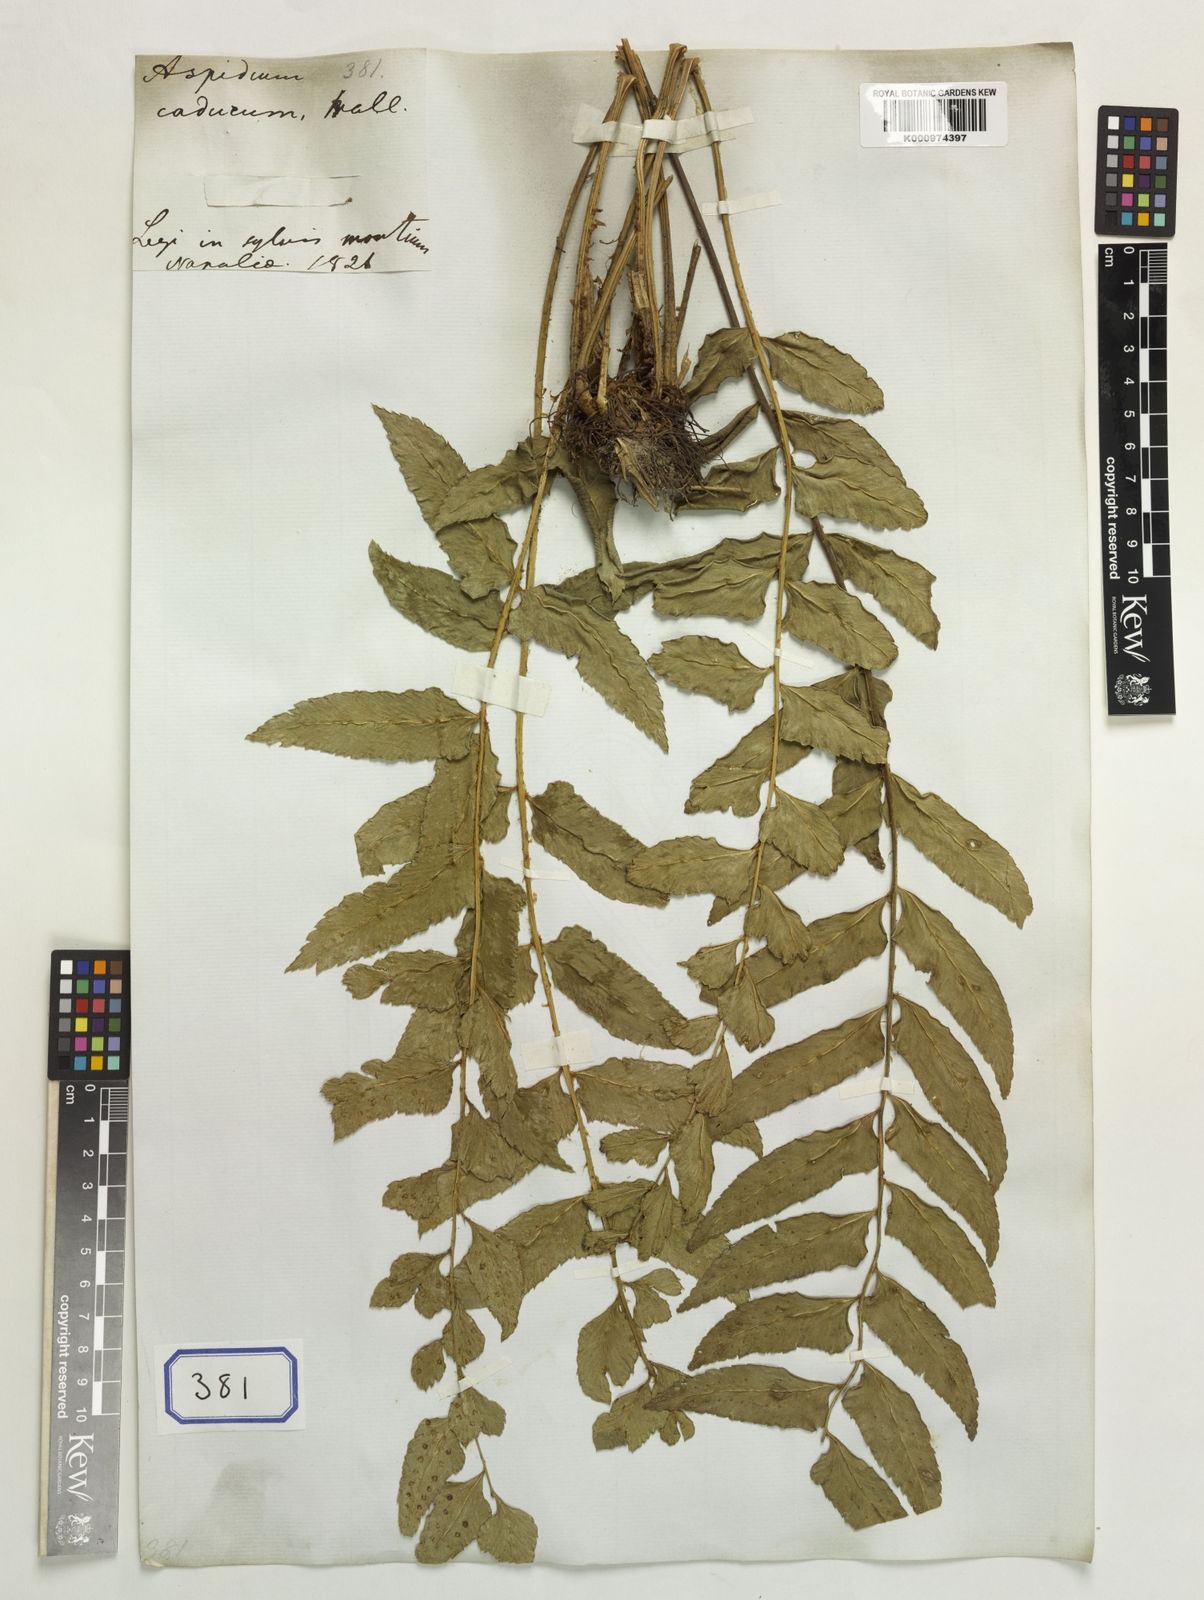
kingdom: Plantae
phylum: Tracheophyta
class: Polypodiopsida
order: Polypodiales
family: Dryopteridaceae
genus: Polystichum
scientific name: Polystichum hookerianum
